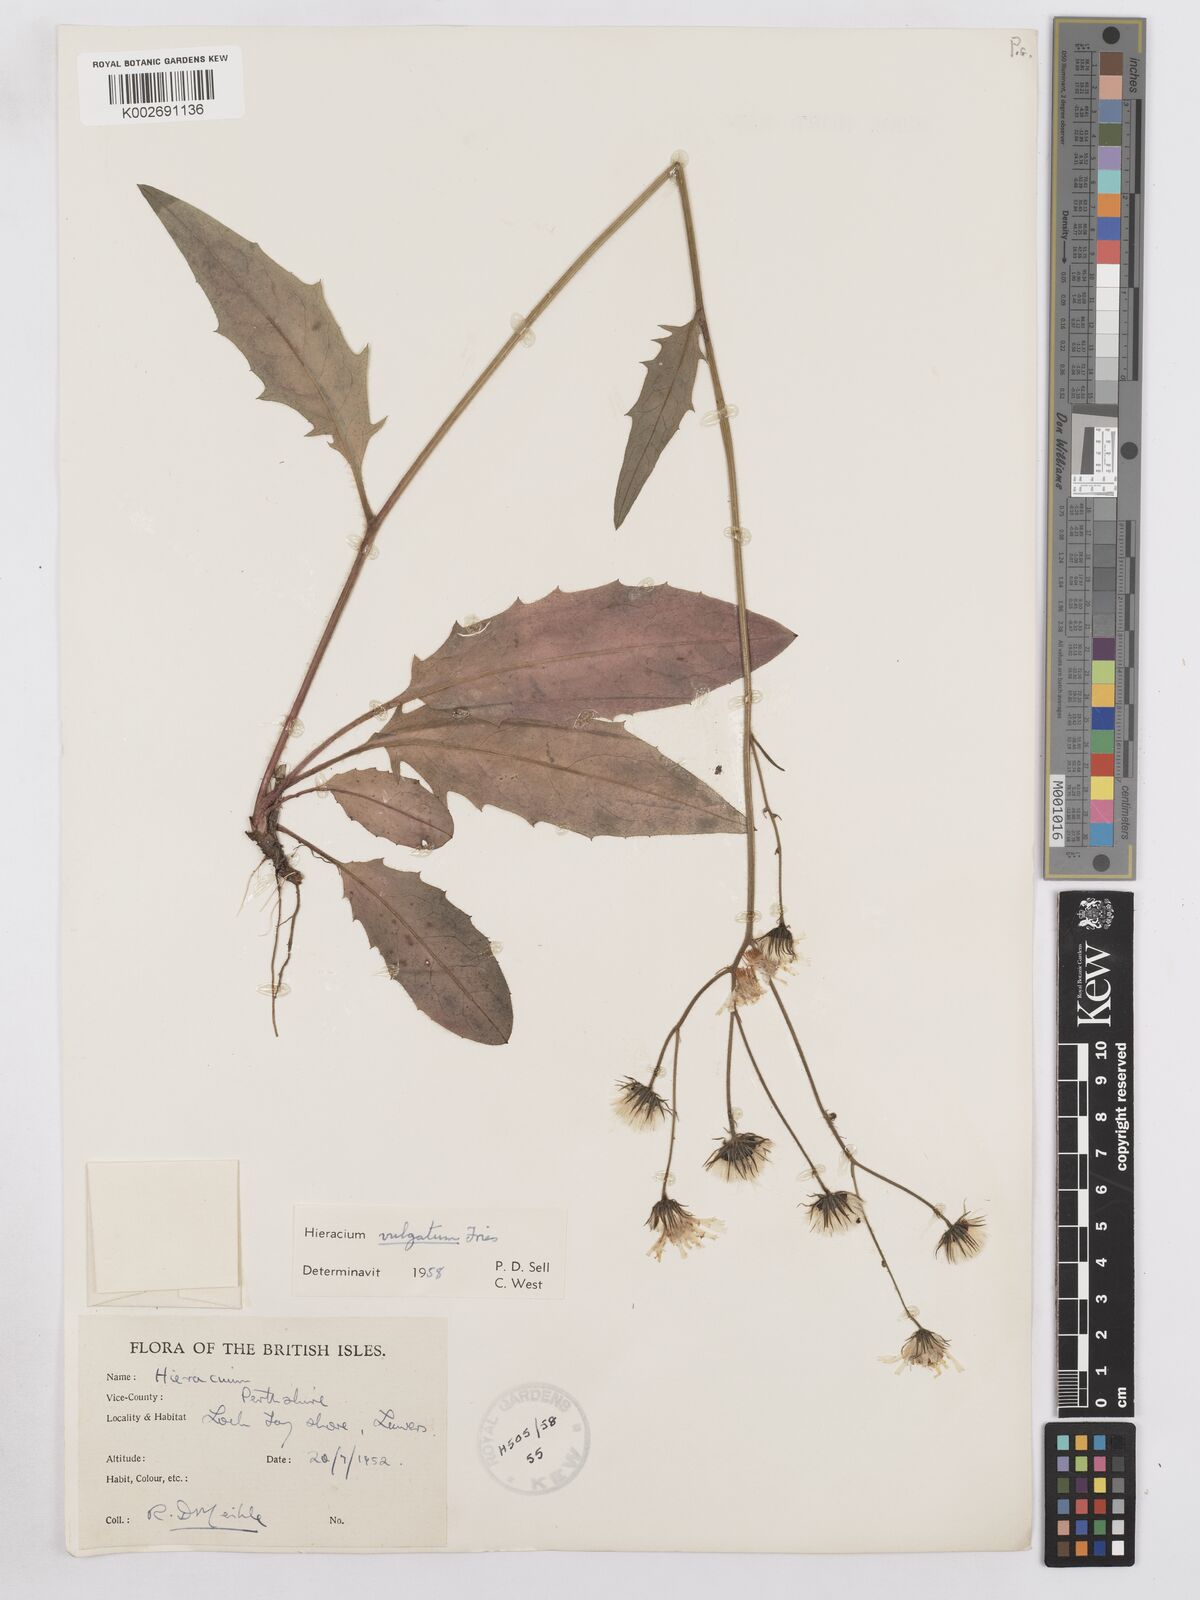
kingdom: Plantae
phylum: Tracheophyta
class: Magnoliopsida
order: Asterales
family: Asteraceae
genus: Hieracium
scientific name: Hieracium lachenalii
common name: Common hawkweed
